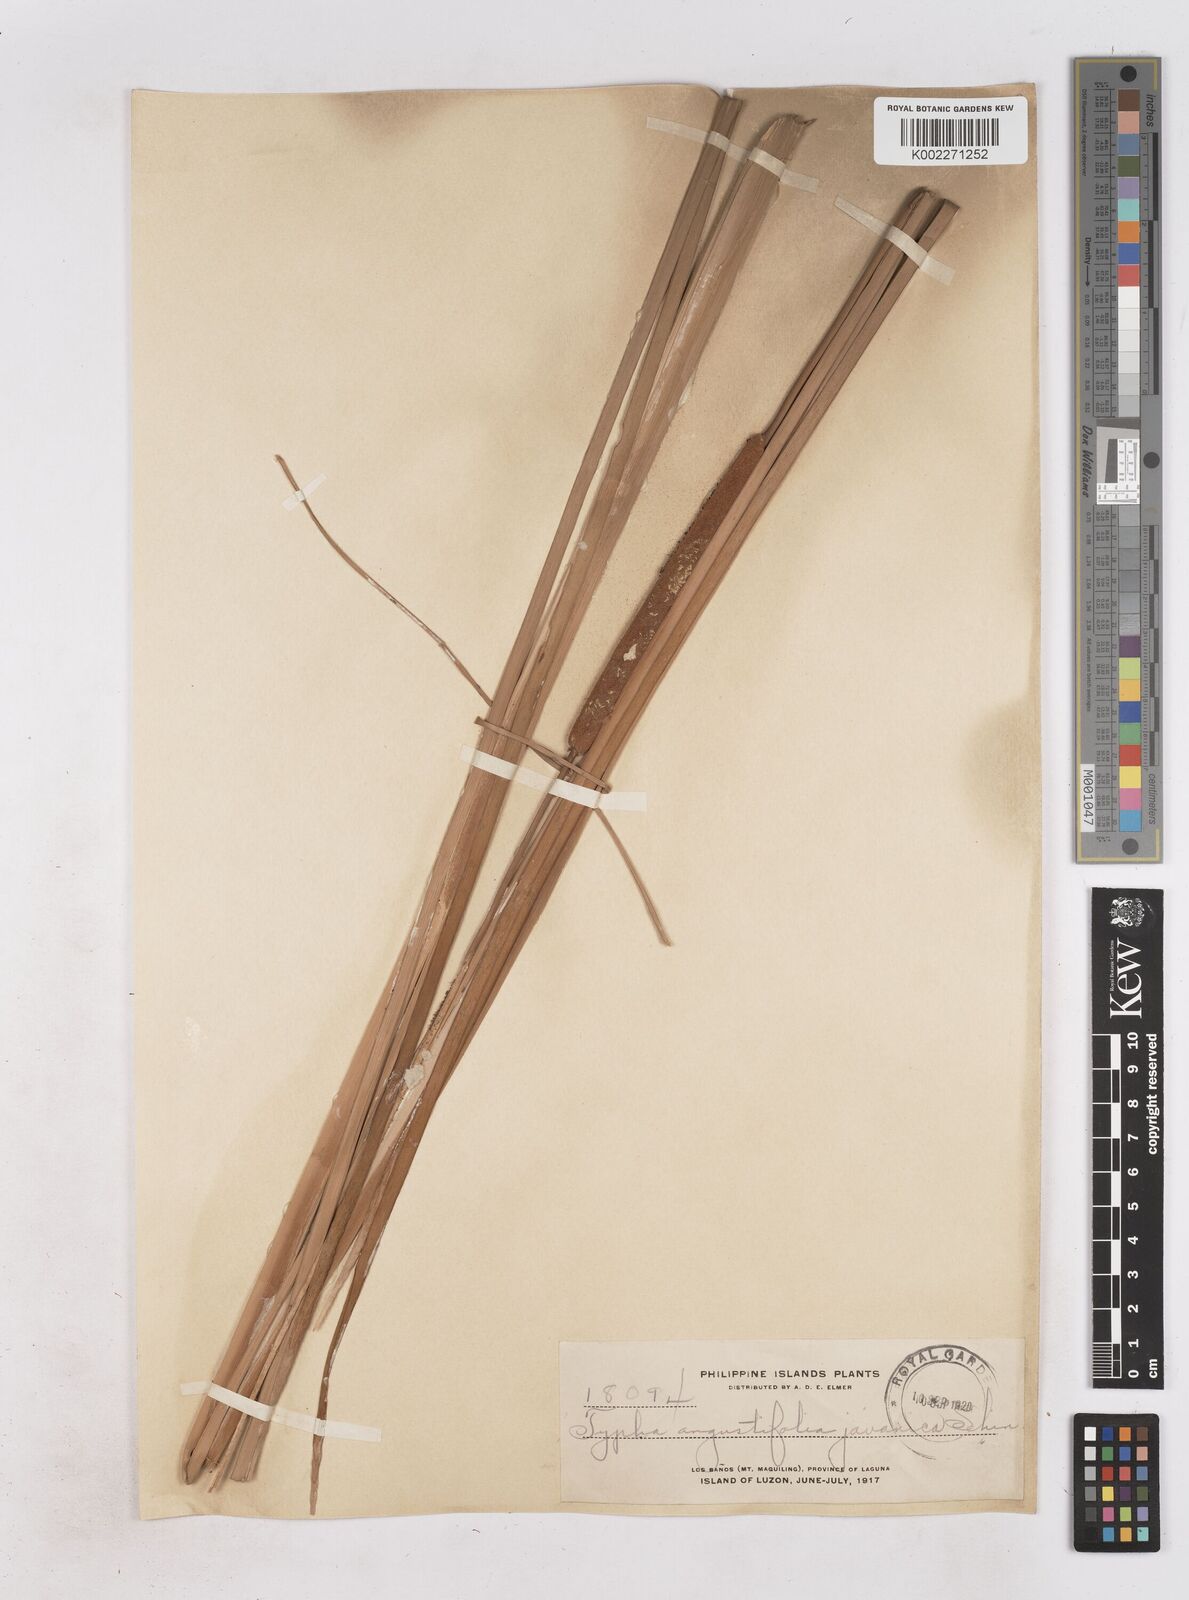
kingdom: Plantae
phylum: Tracheophyta
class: Liliopsida
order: Poales
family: Typhaceae
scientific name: Typhaceae
